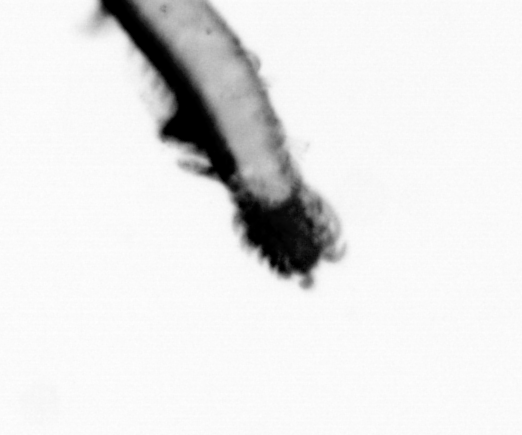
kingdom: Animalia
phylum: Annelida
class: Polychaeta
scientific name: Polychaeta
